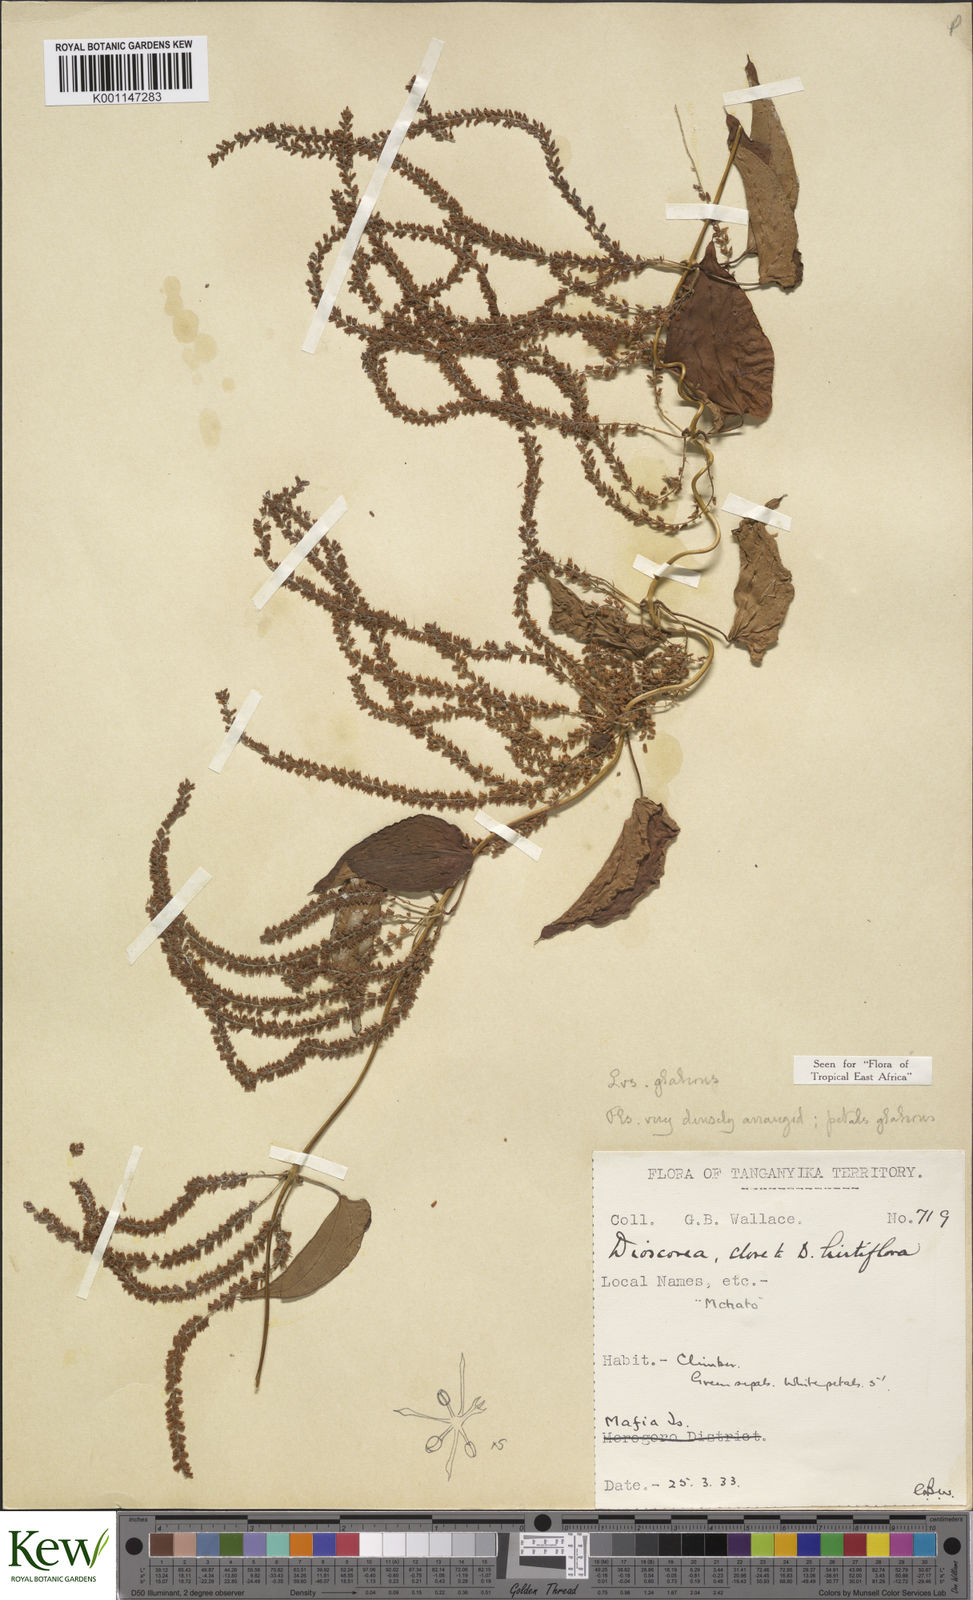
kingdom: Plantae
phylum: Tracheophyta
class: Liliopsida
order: Dioscoreales
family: Dioscoreaceae
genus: Dioscorea
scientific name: Dioscorea hirtiflora
